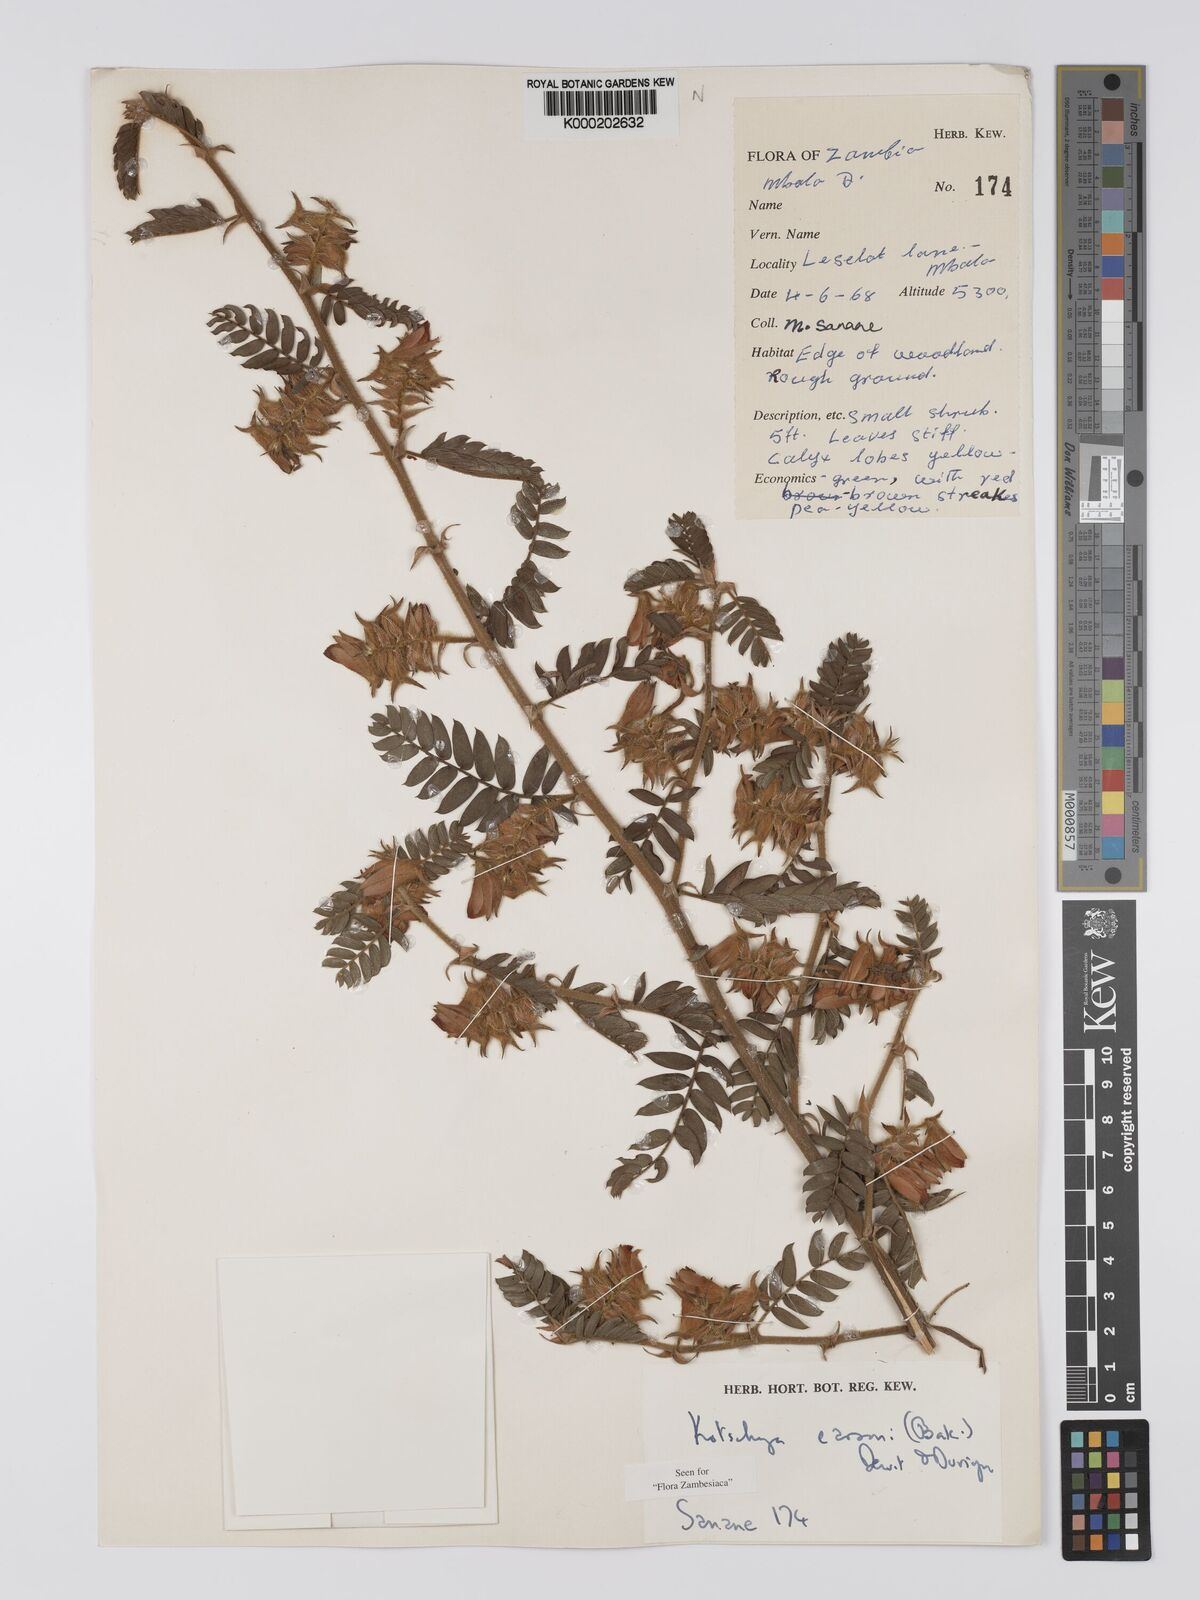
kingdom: Plantae
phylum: Tracheophyta
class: Magnoliopsida
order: Fabales
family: Fabaceae
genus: Kotschya
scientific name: Kotschya carsonii
